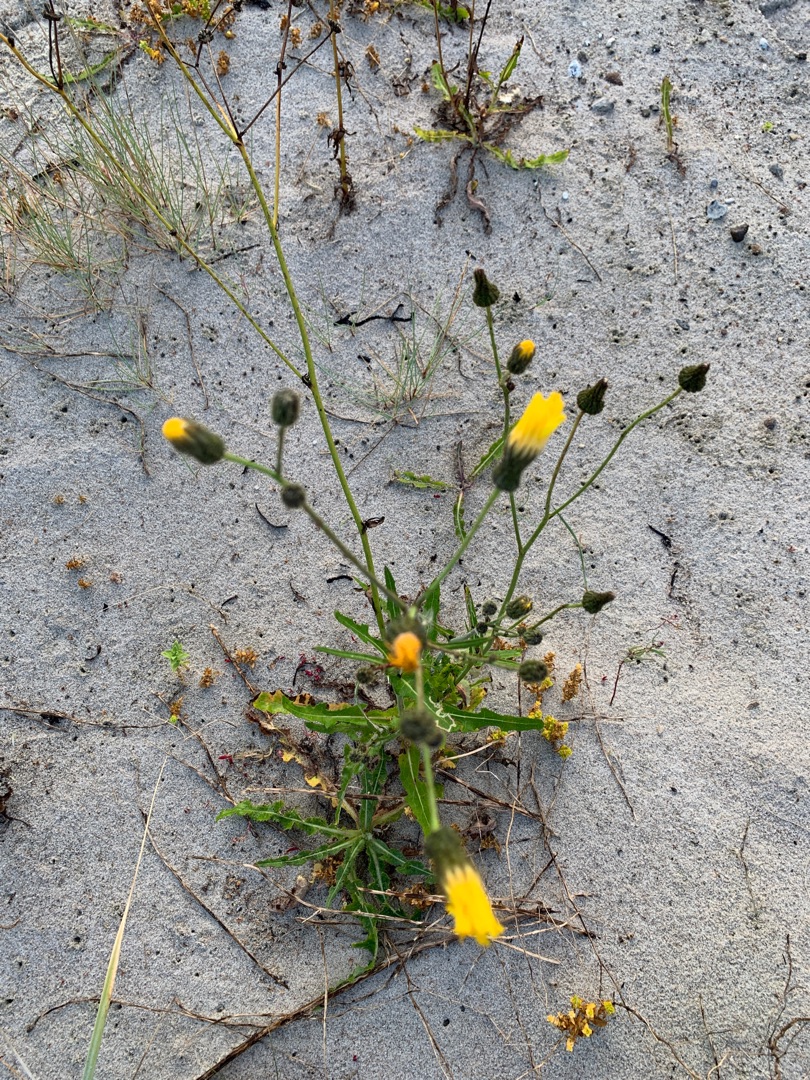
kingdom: Plantae
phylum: Tracheophyta
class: Magnoliopsida
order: Asterales
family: Asteraceae
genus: Sonchus
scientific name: Sonchus arvensis
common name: Ager-svinemælk
